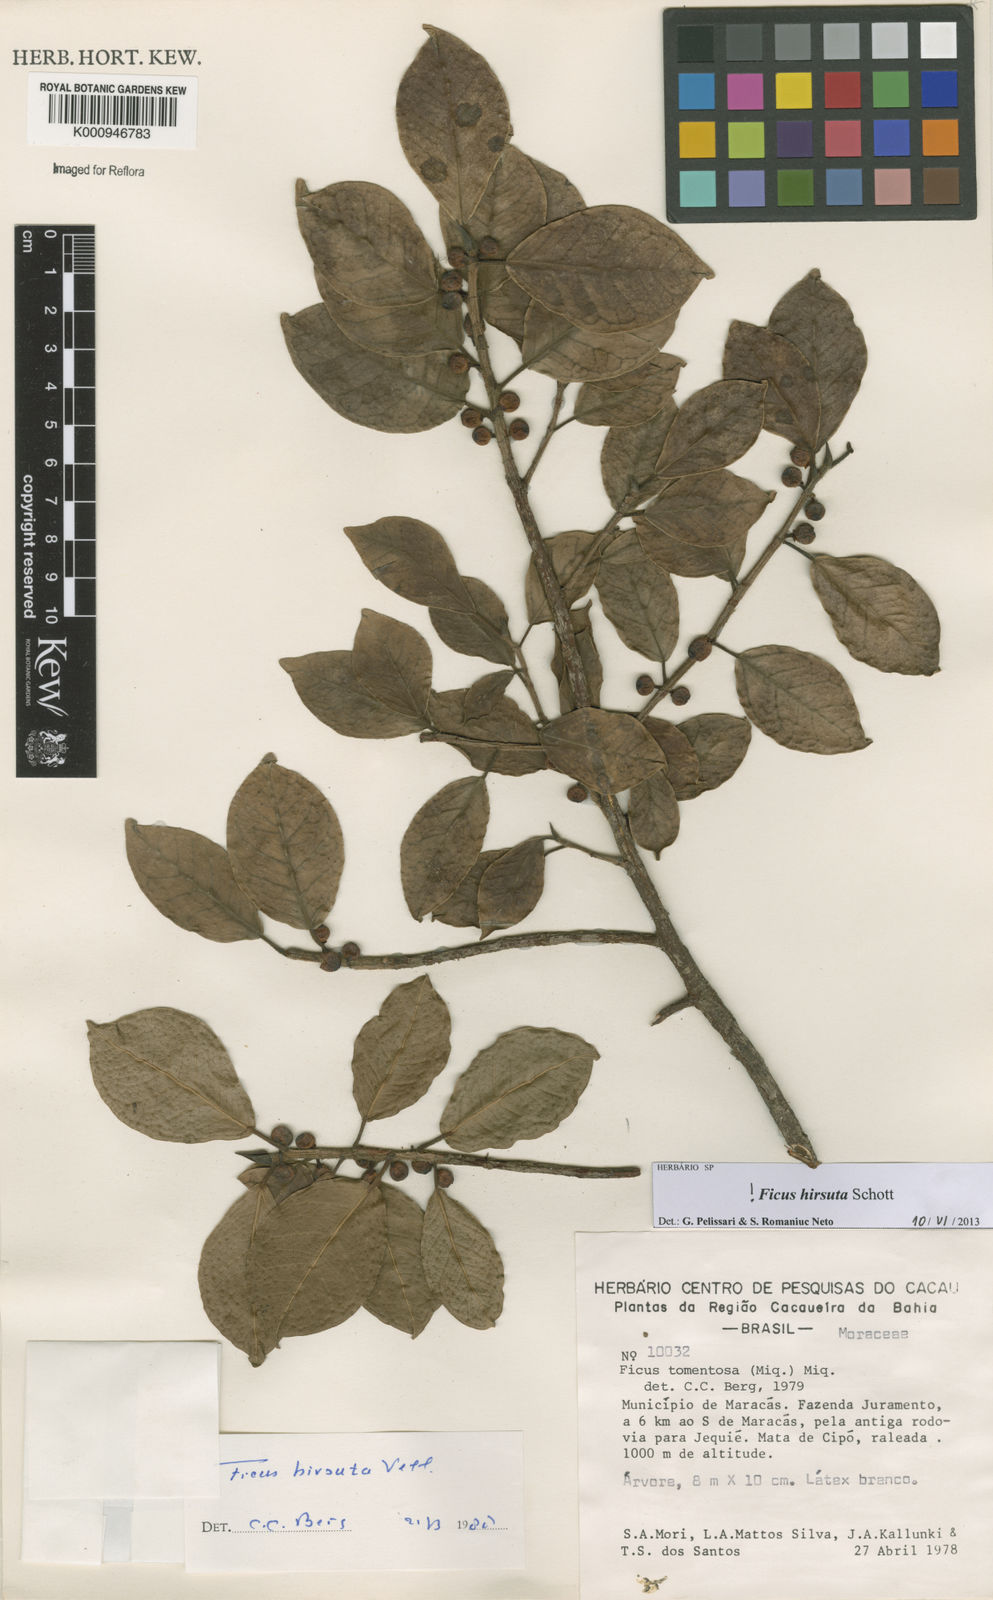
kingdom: Plantae
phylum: Tracheophyta
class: Magnoliopsida
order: Rosales
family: Moraceae
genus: Ficus
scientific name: Ficus hirsuta
